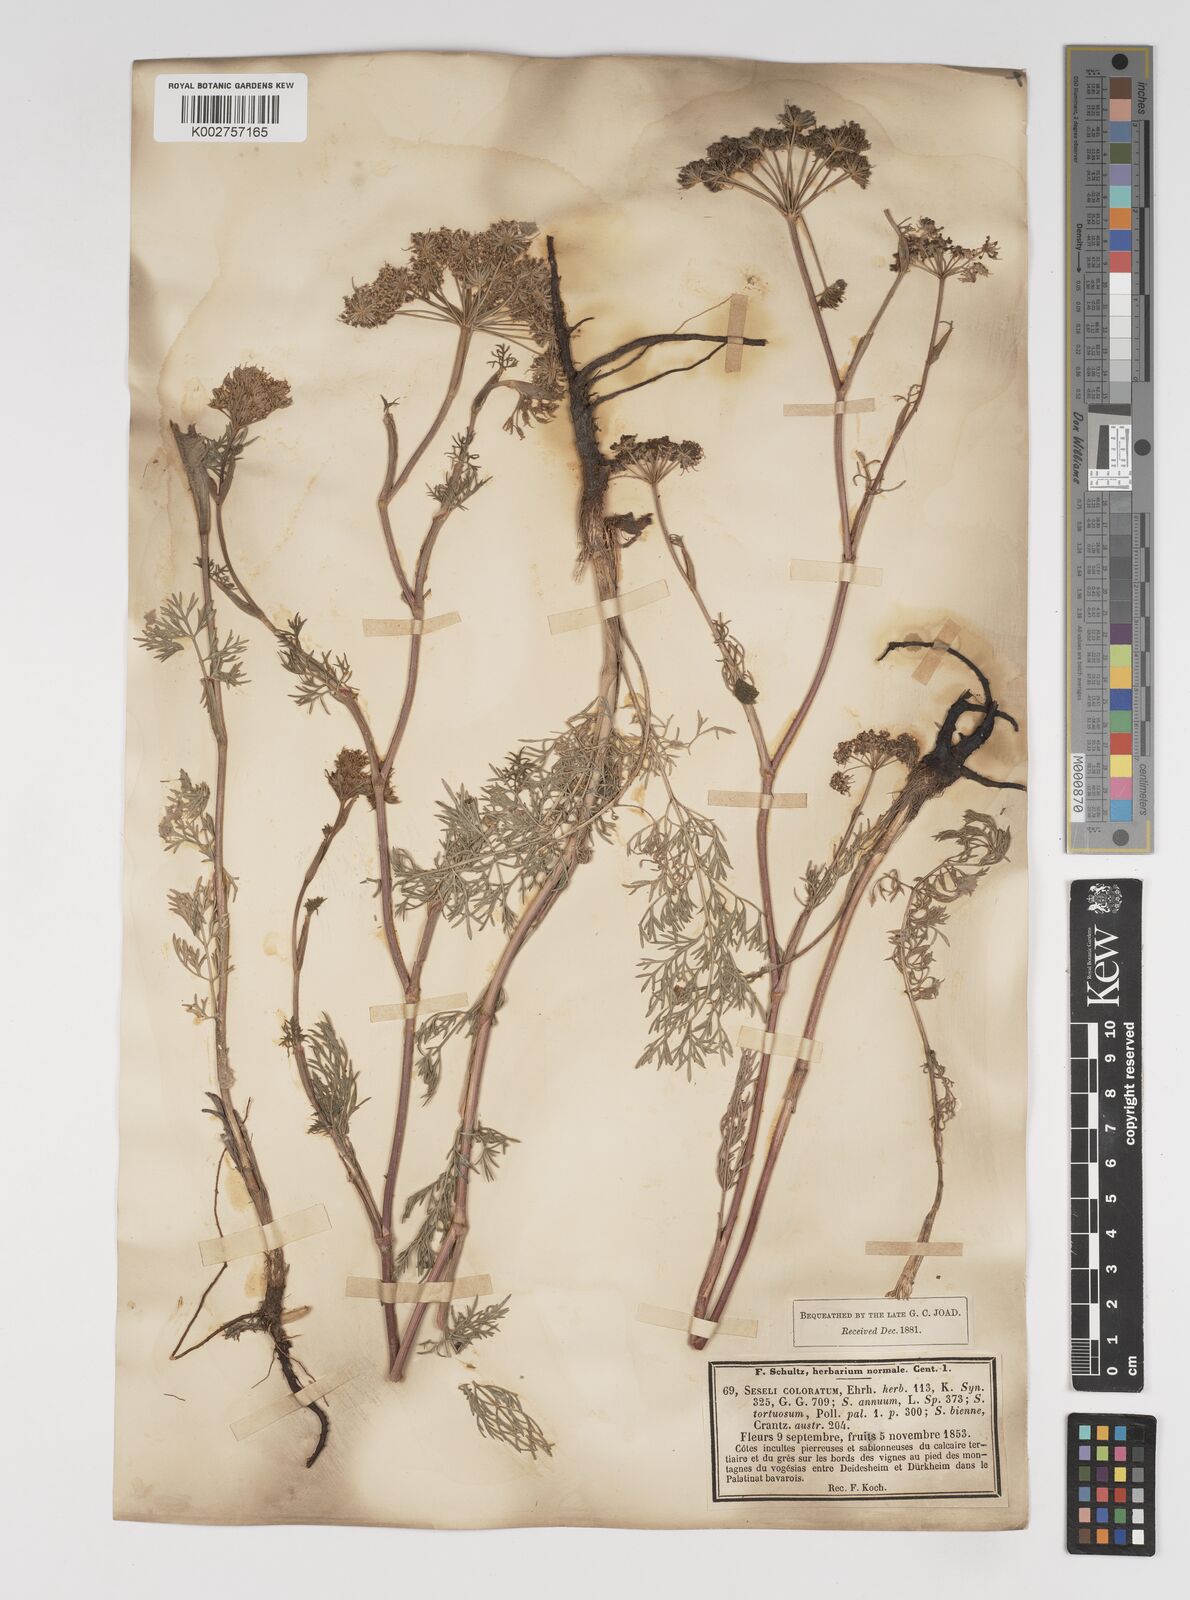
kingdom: Plantae
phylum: Tracheophyta
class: Magnoliopsida
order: Apiales
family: Apiaceae
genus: Seseli
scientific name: Seseli annuum
